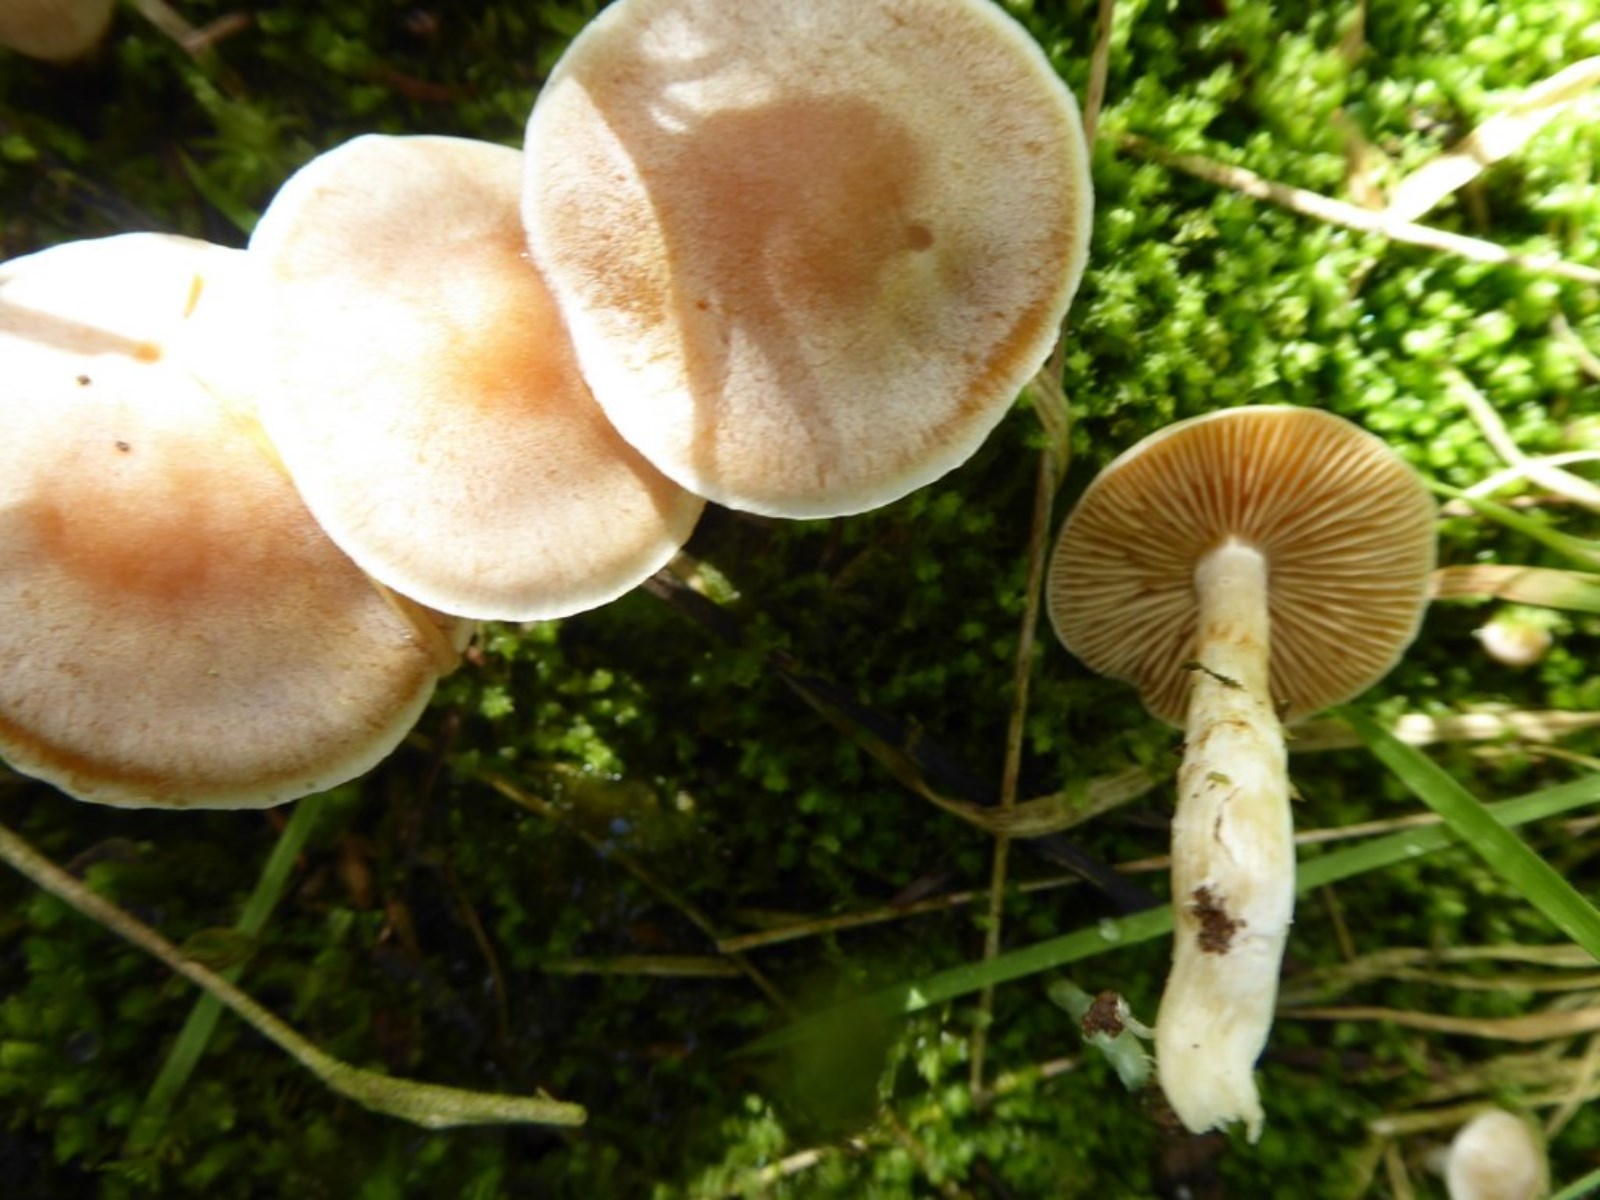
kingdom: Fungi
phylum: Basidiomycota
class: Agaricomycetes
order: Agaricales
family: Cortinariaceae
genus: Cortinarius
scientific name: Cortinarius
